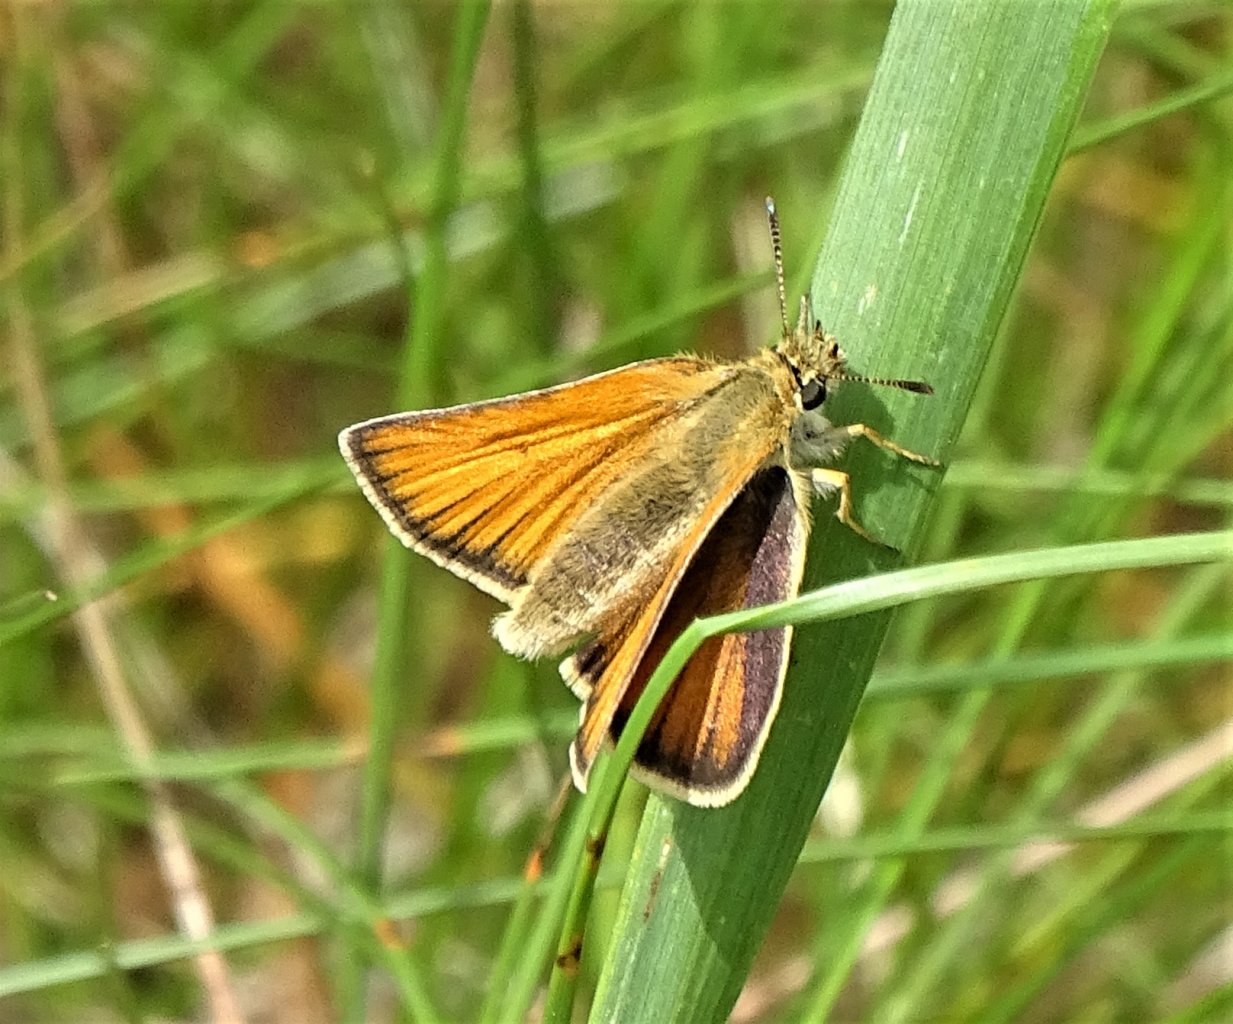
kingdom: Animalia
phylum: Arthropoda
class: Insecta
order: Lepidoptera
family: Hesperiidae
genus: Thymelicus
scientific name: Thymelicus lineola
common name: European Skipper
